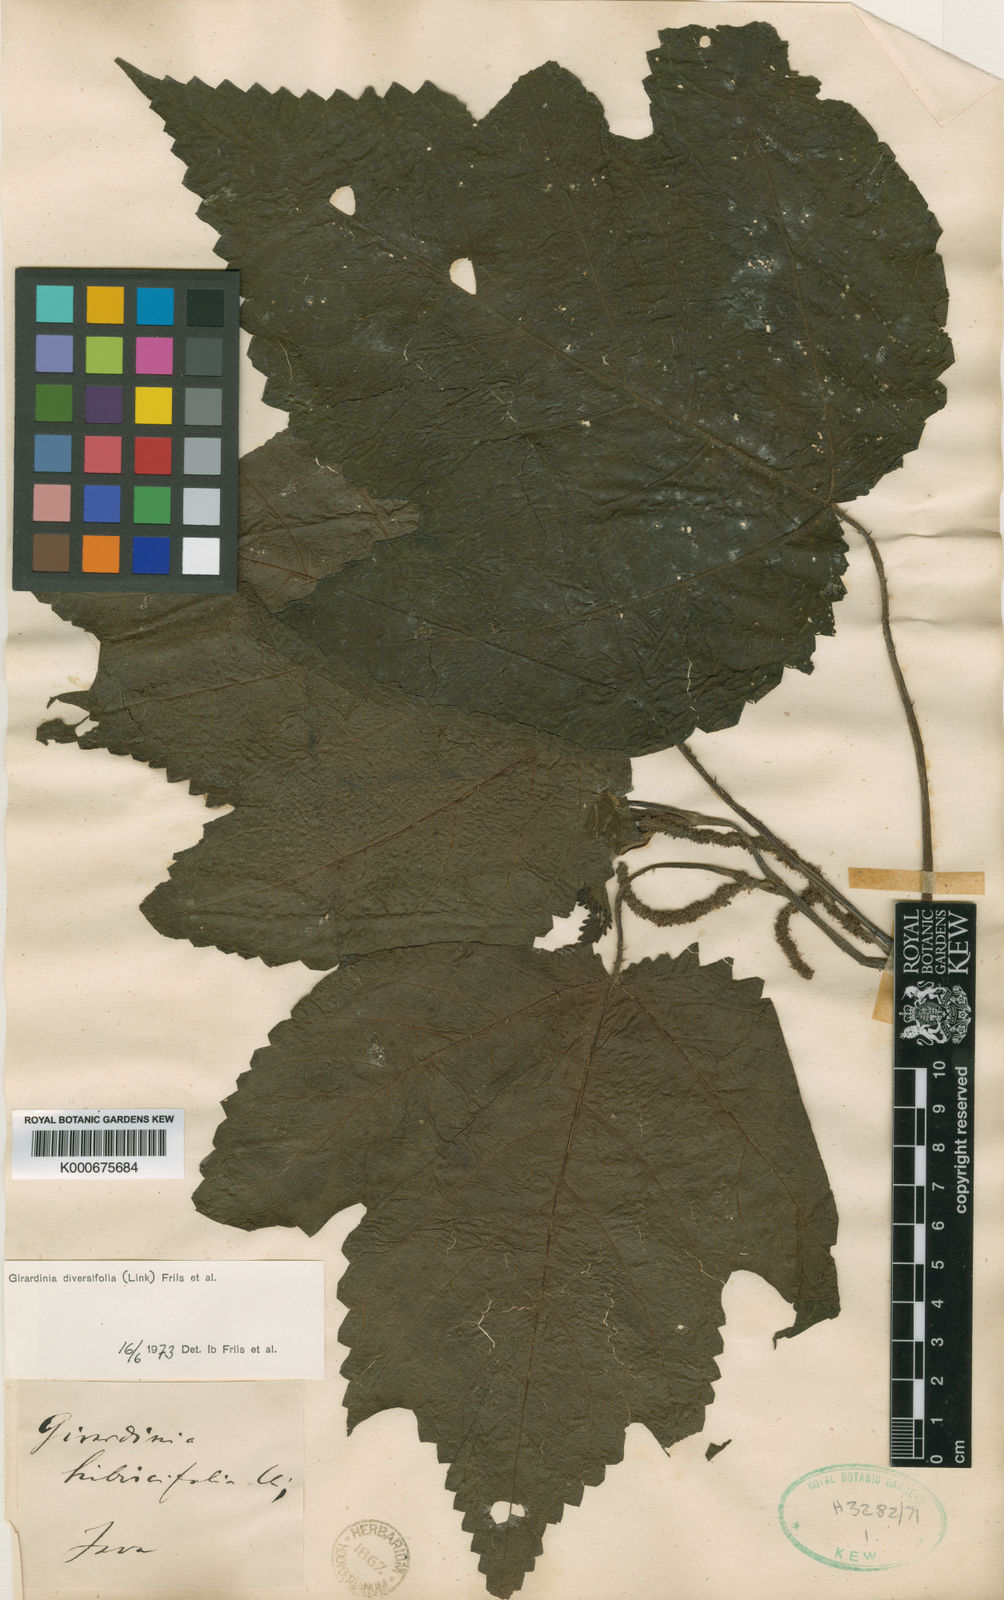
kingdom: Plantae
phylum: Tracheophyta
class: Magnoliopsida
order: Rosales
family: Urticaceae
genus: Girardinia
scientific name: Girardinia diversifolia
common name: Himalayan-nettle
